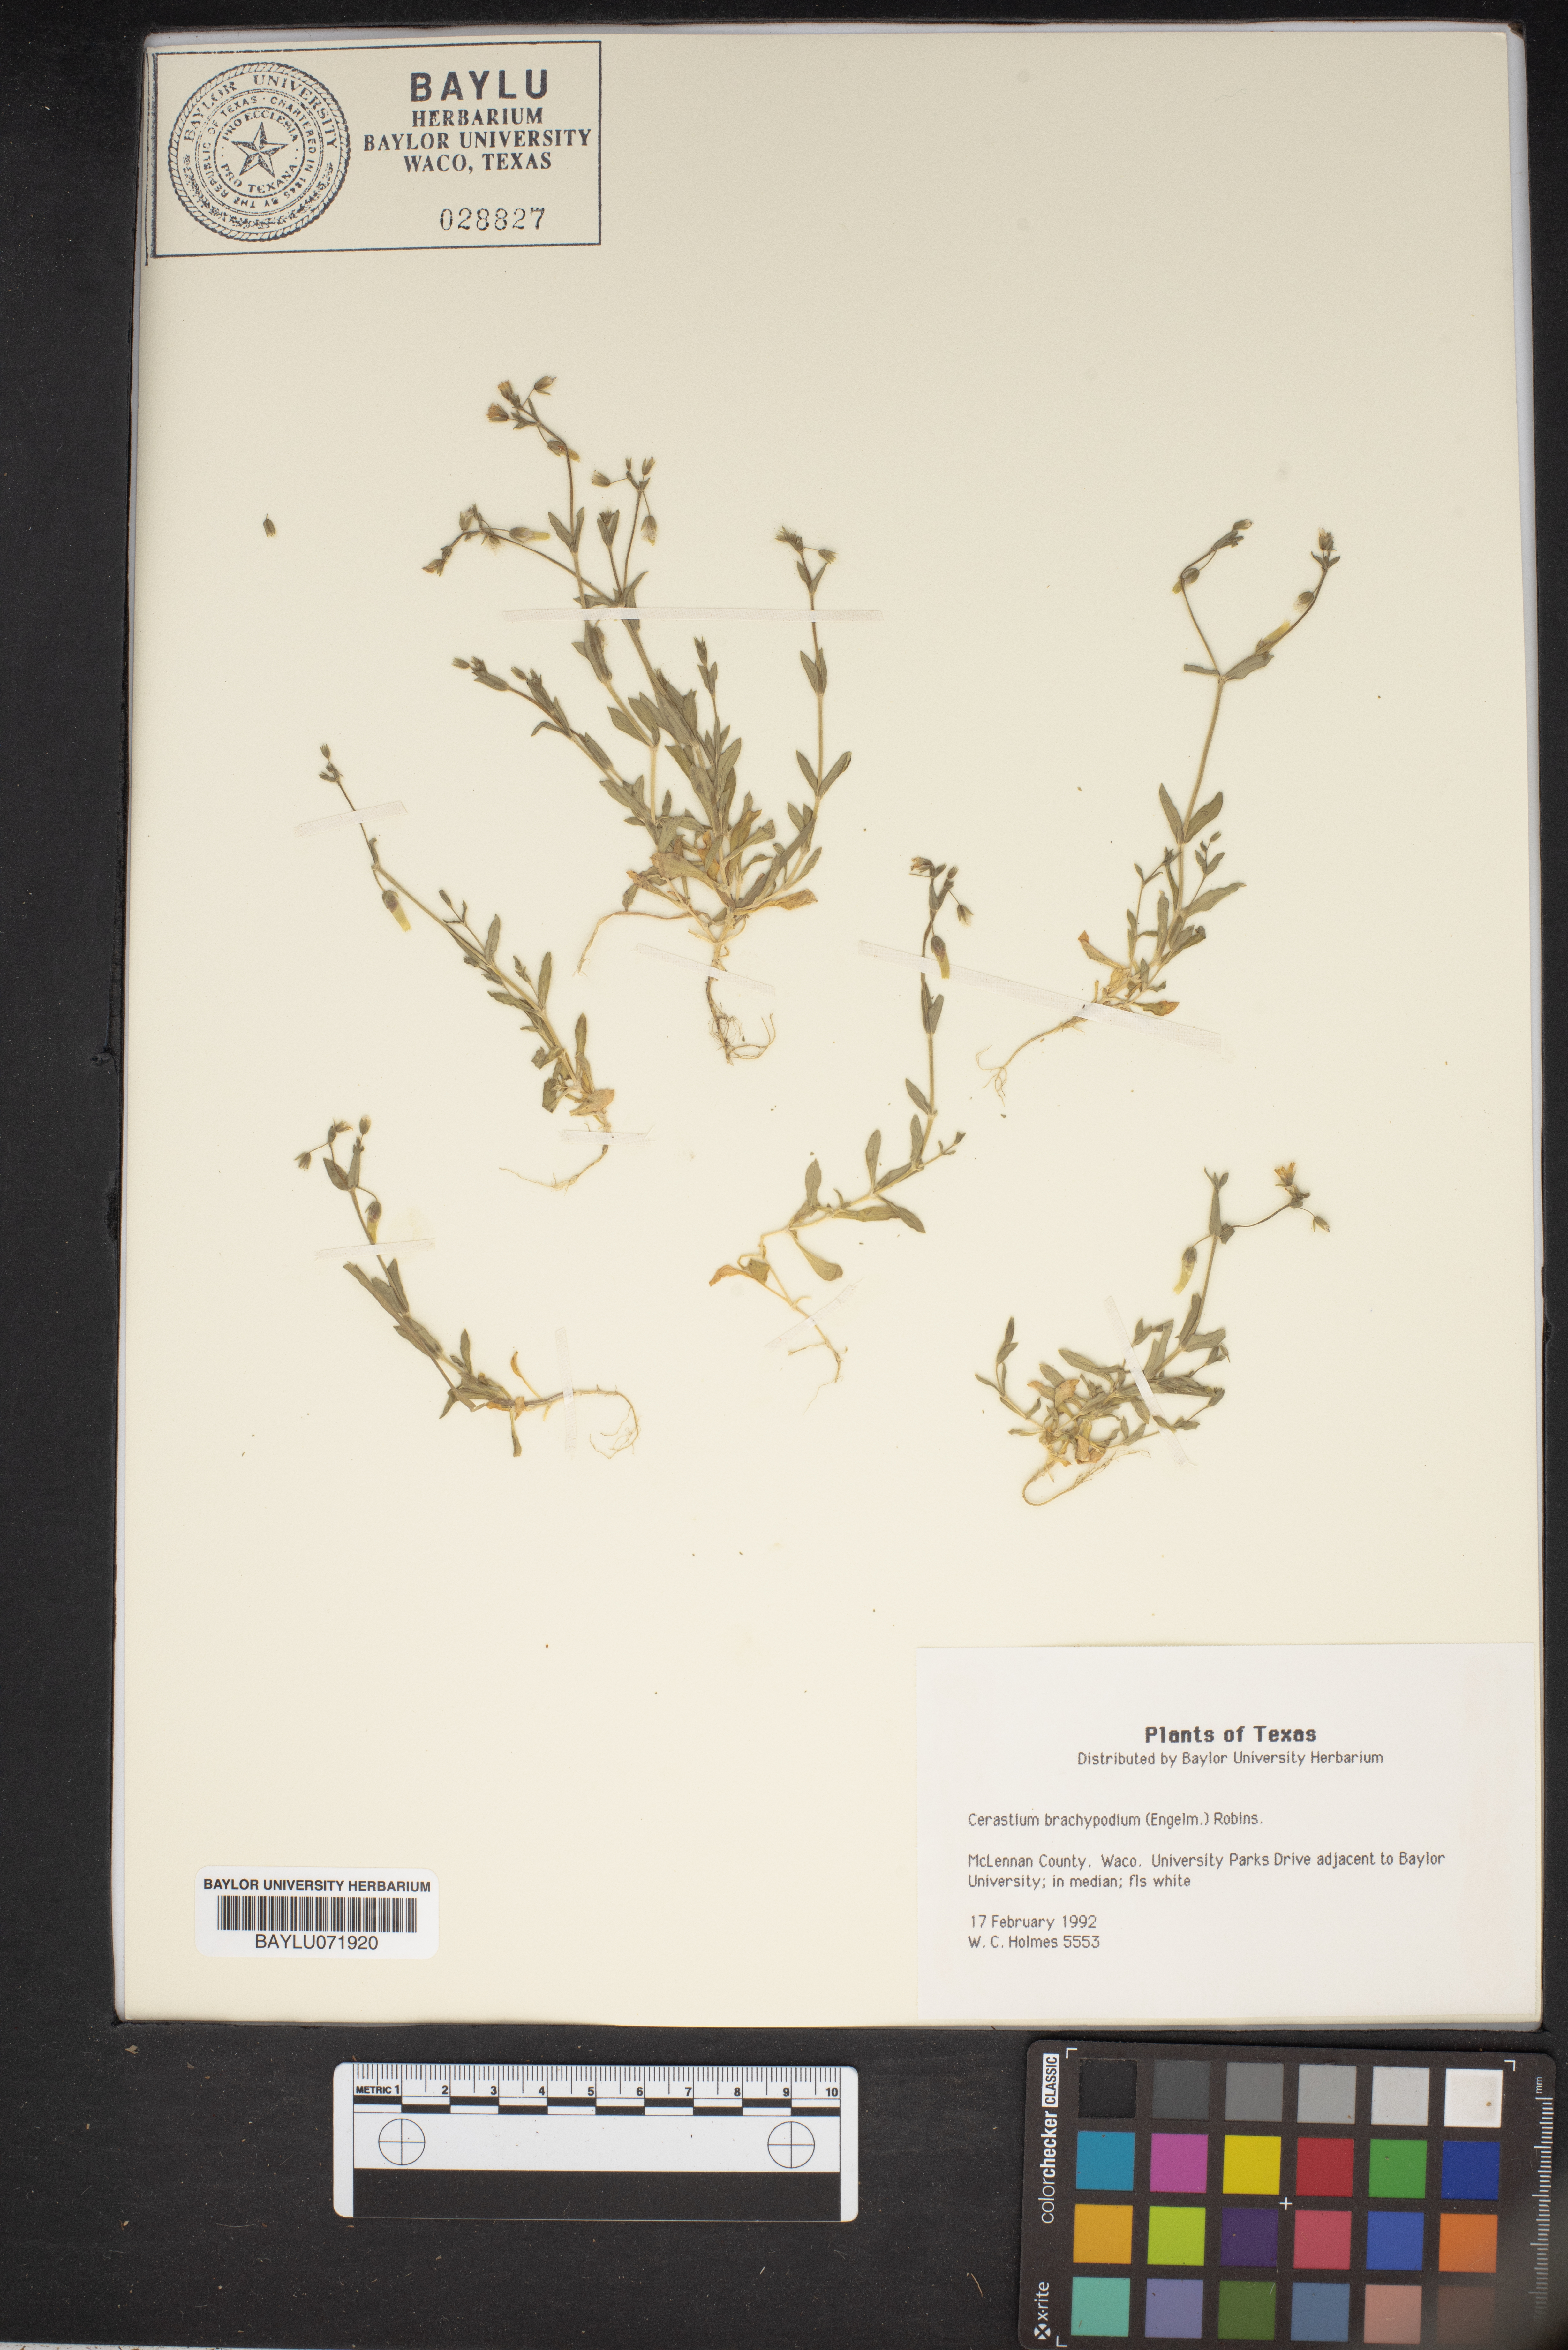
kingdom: Plantae
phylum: Tracheophyta
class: Magnoliopsida
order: Caryophyllales
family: Caryophyllaceae
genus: Cerastium
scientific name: Cerastium brachypodum
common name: Short-pedicelled nodding chickweed
